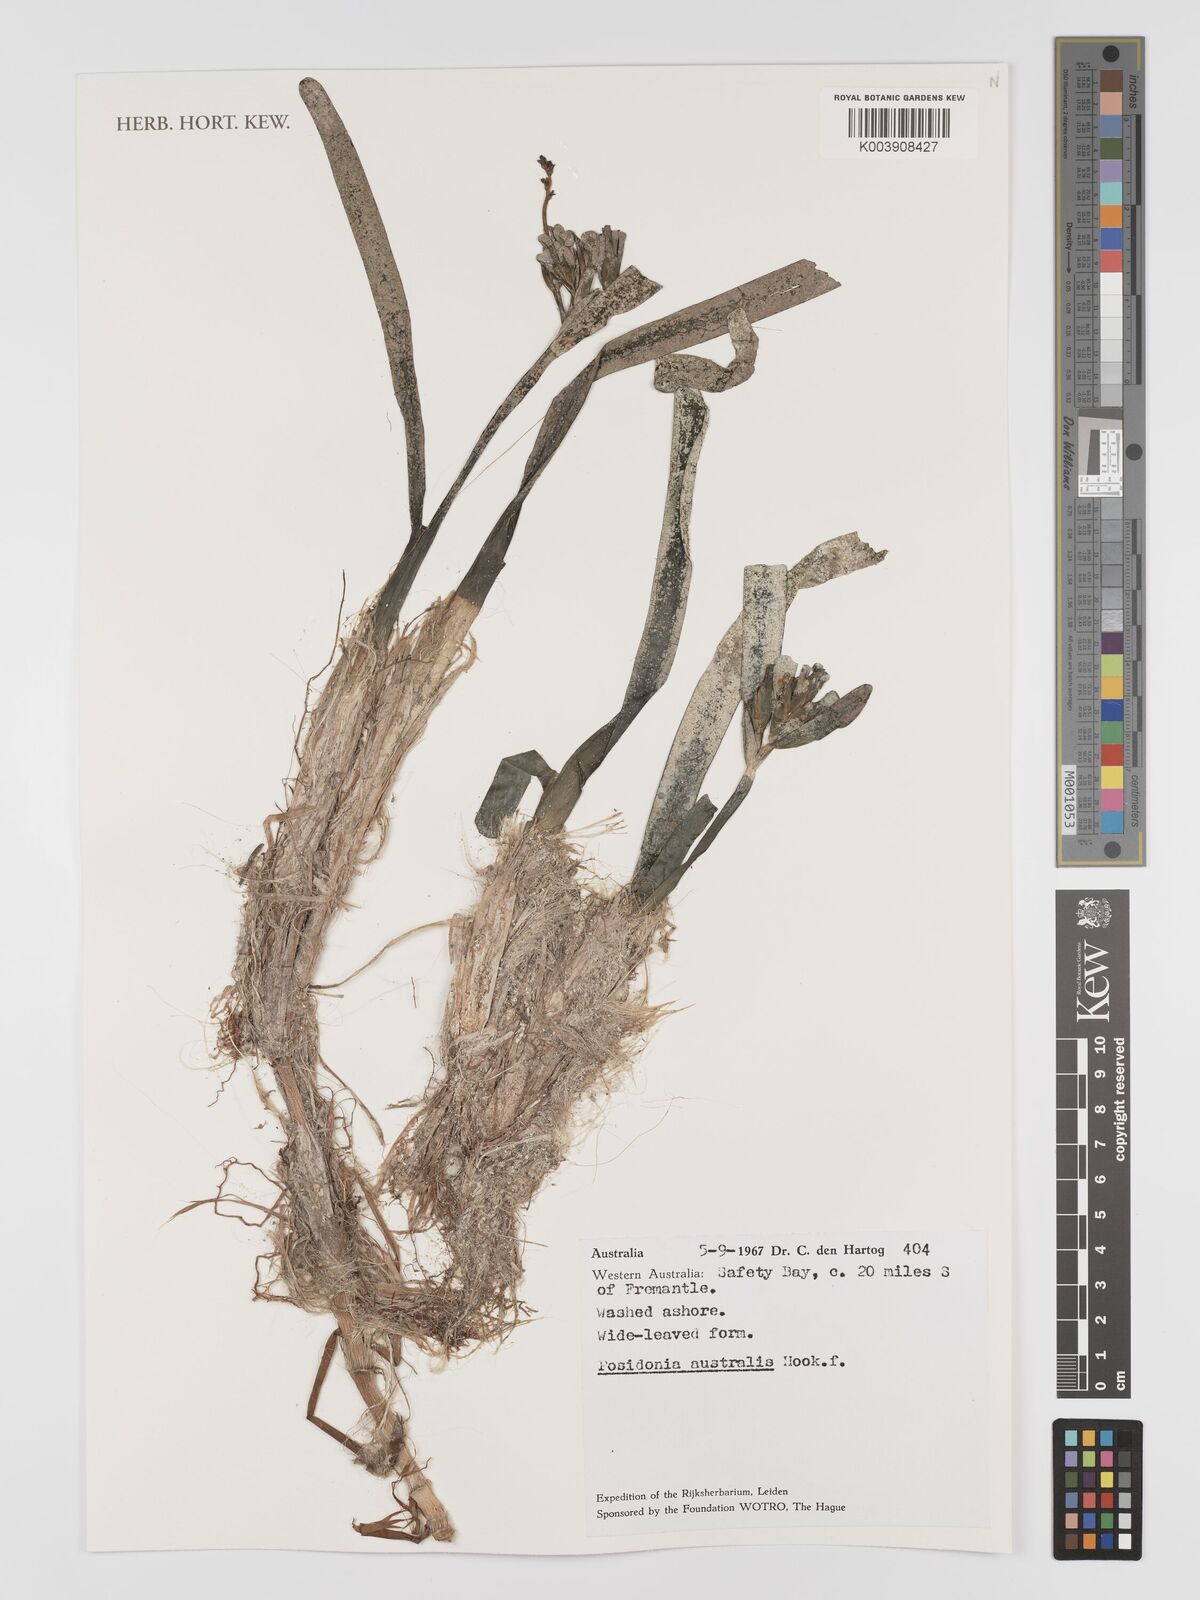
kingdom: Plantae
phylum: Tracheophyta
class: Liliopsida
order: Alismatales
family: Posidoniaceae
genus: Posidonia
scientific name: Posidonia australis
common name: Species code: pa
